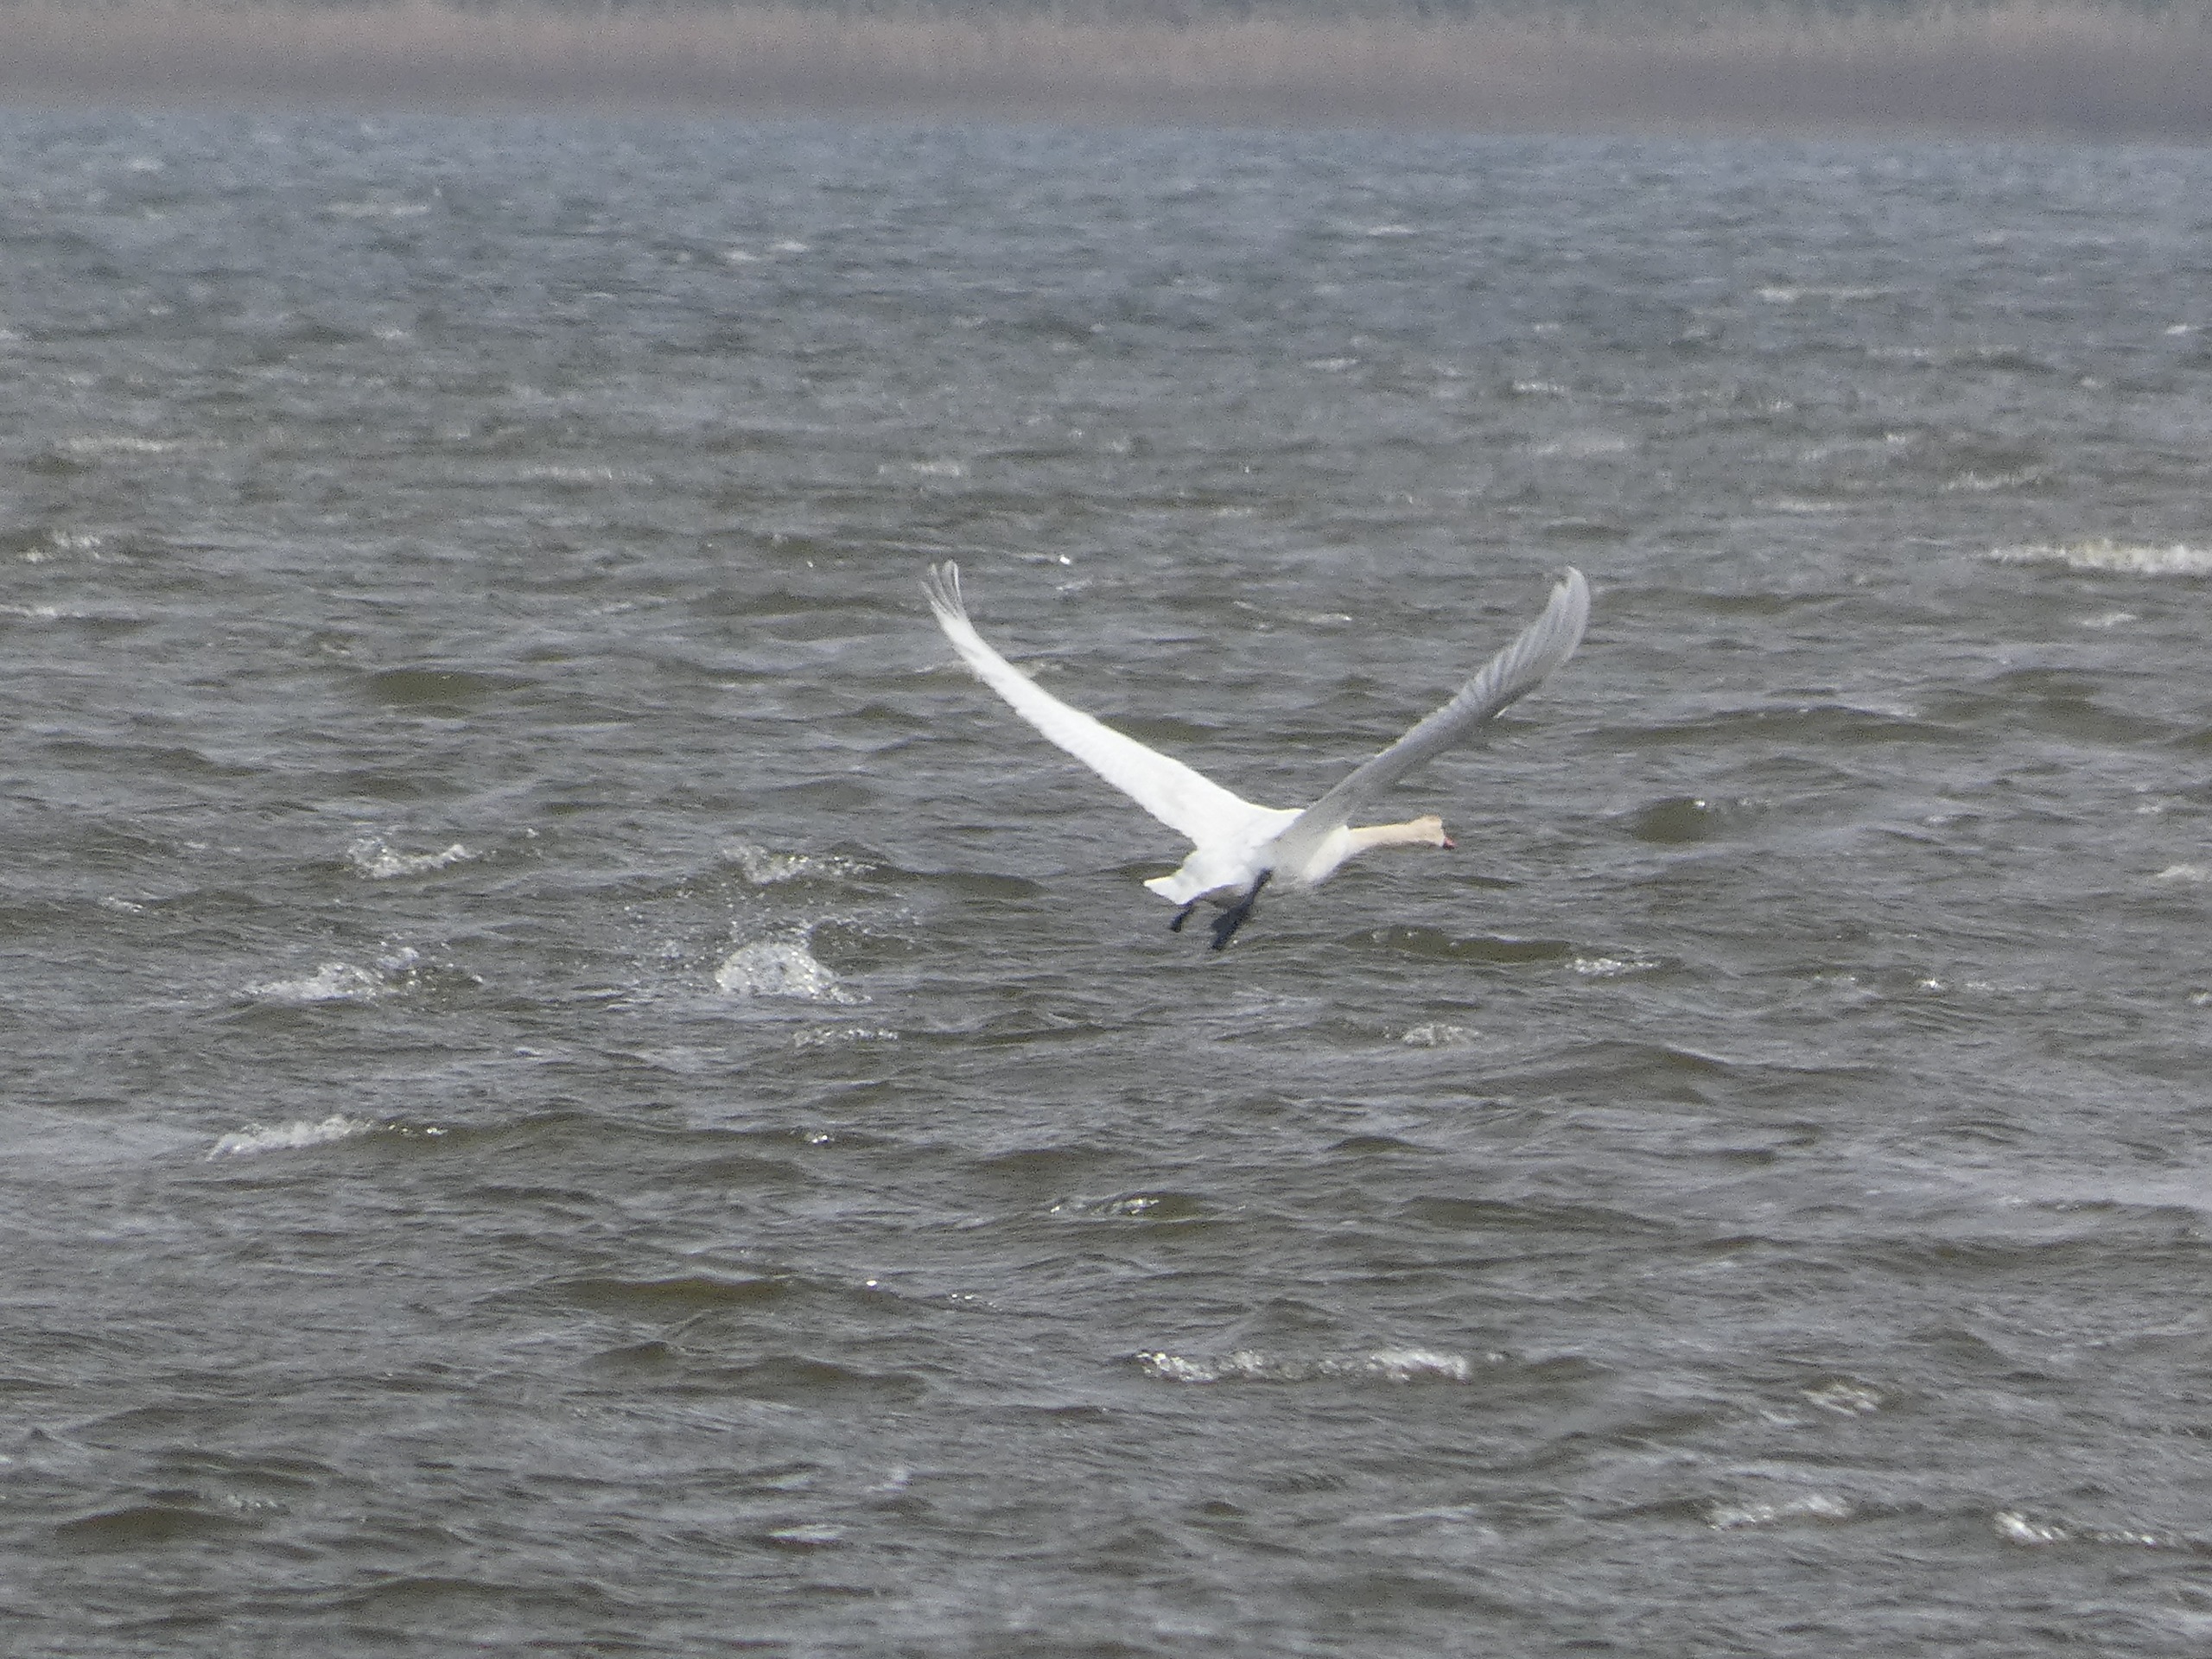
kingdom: Animalia
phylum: Chordata
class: Aves
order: Anseriformes
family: Anatidae
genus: Cygnus
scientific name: Cygnus olor
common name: Knopsvane
